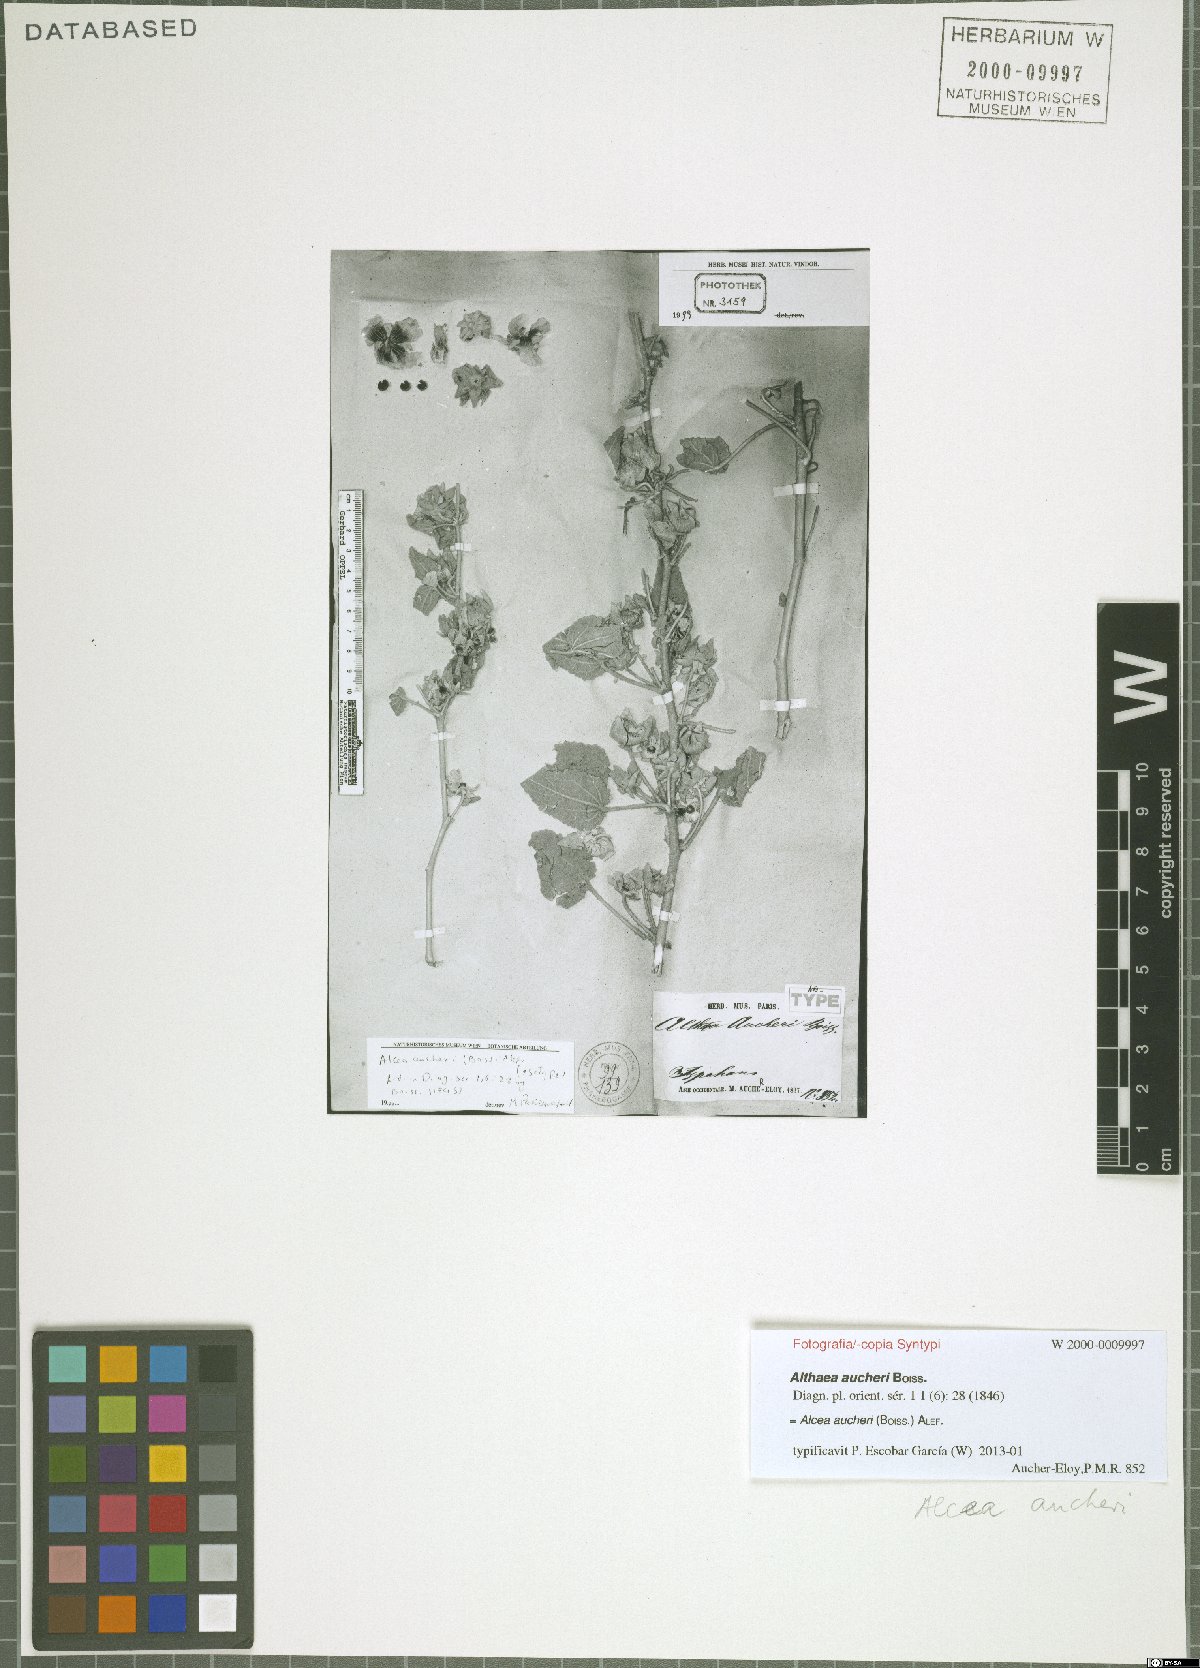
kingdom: Plantae
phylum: Tracheophyta
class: Magnoliopsida
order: Malvales
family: Malvaceae
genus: Alcea
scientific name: Alcea aucheri
